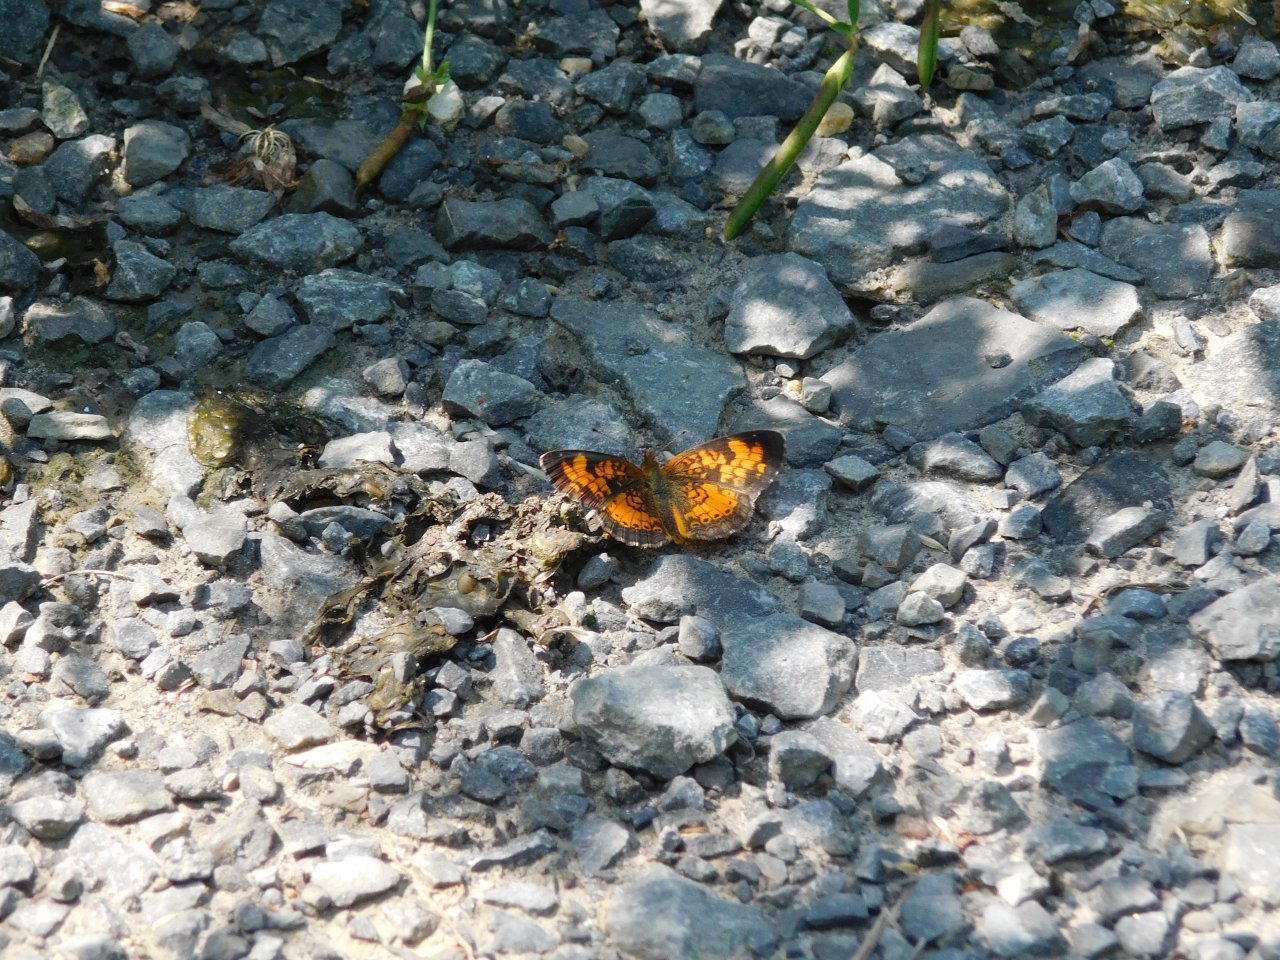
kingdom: Animalia
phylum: Arthropoda
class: Insecta
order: Lepidoptera
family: Nymphalidae
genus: Phyciodes
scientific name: Phyciodes tharos
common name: Pearl Crescent
